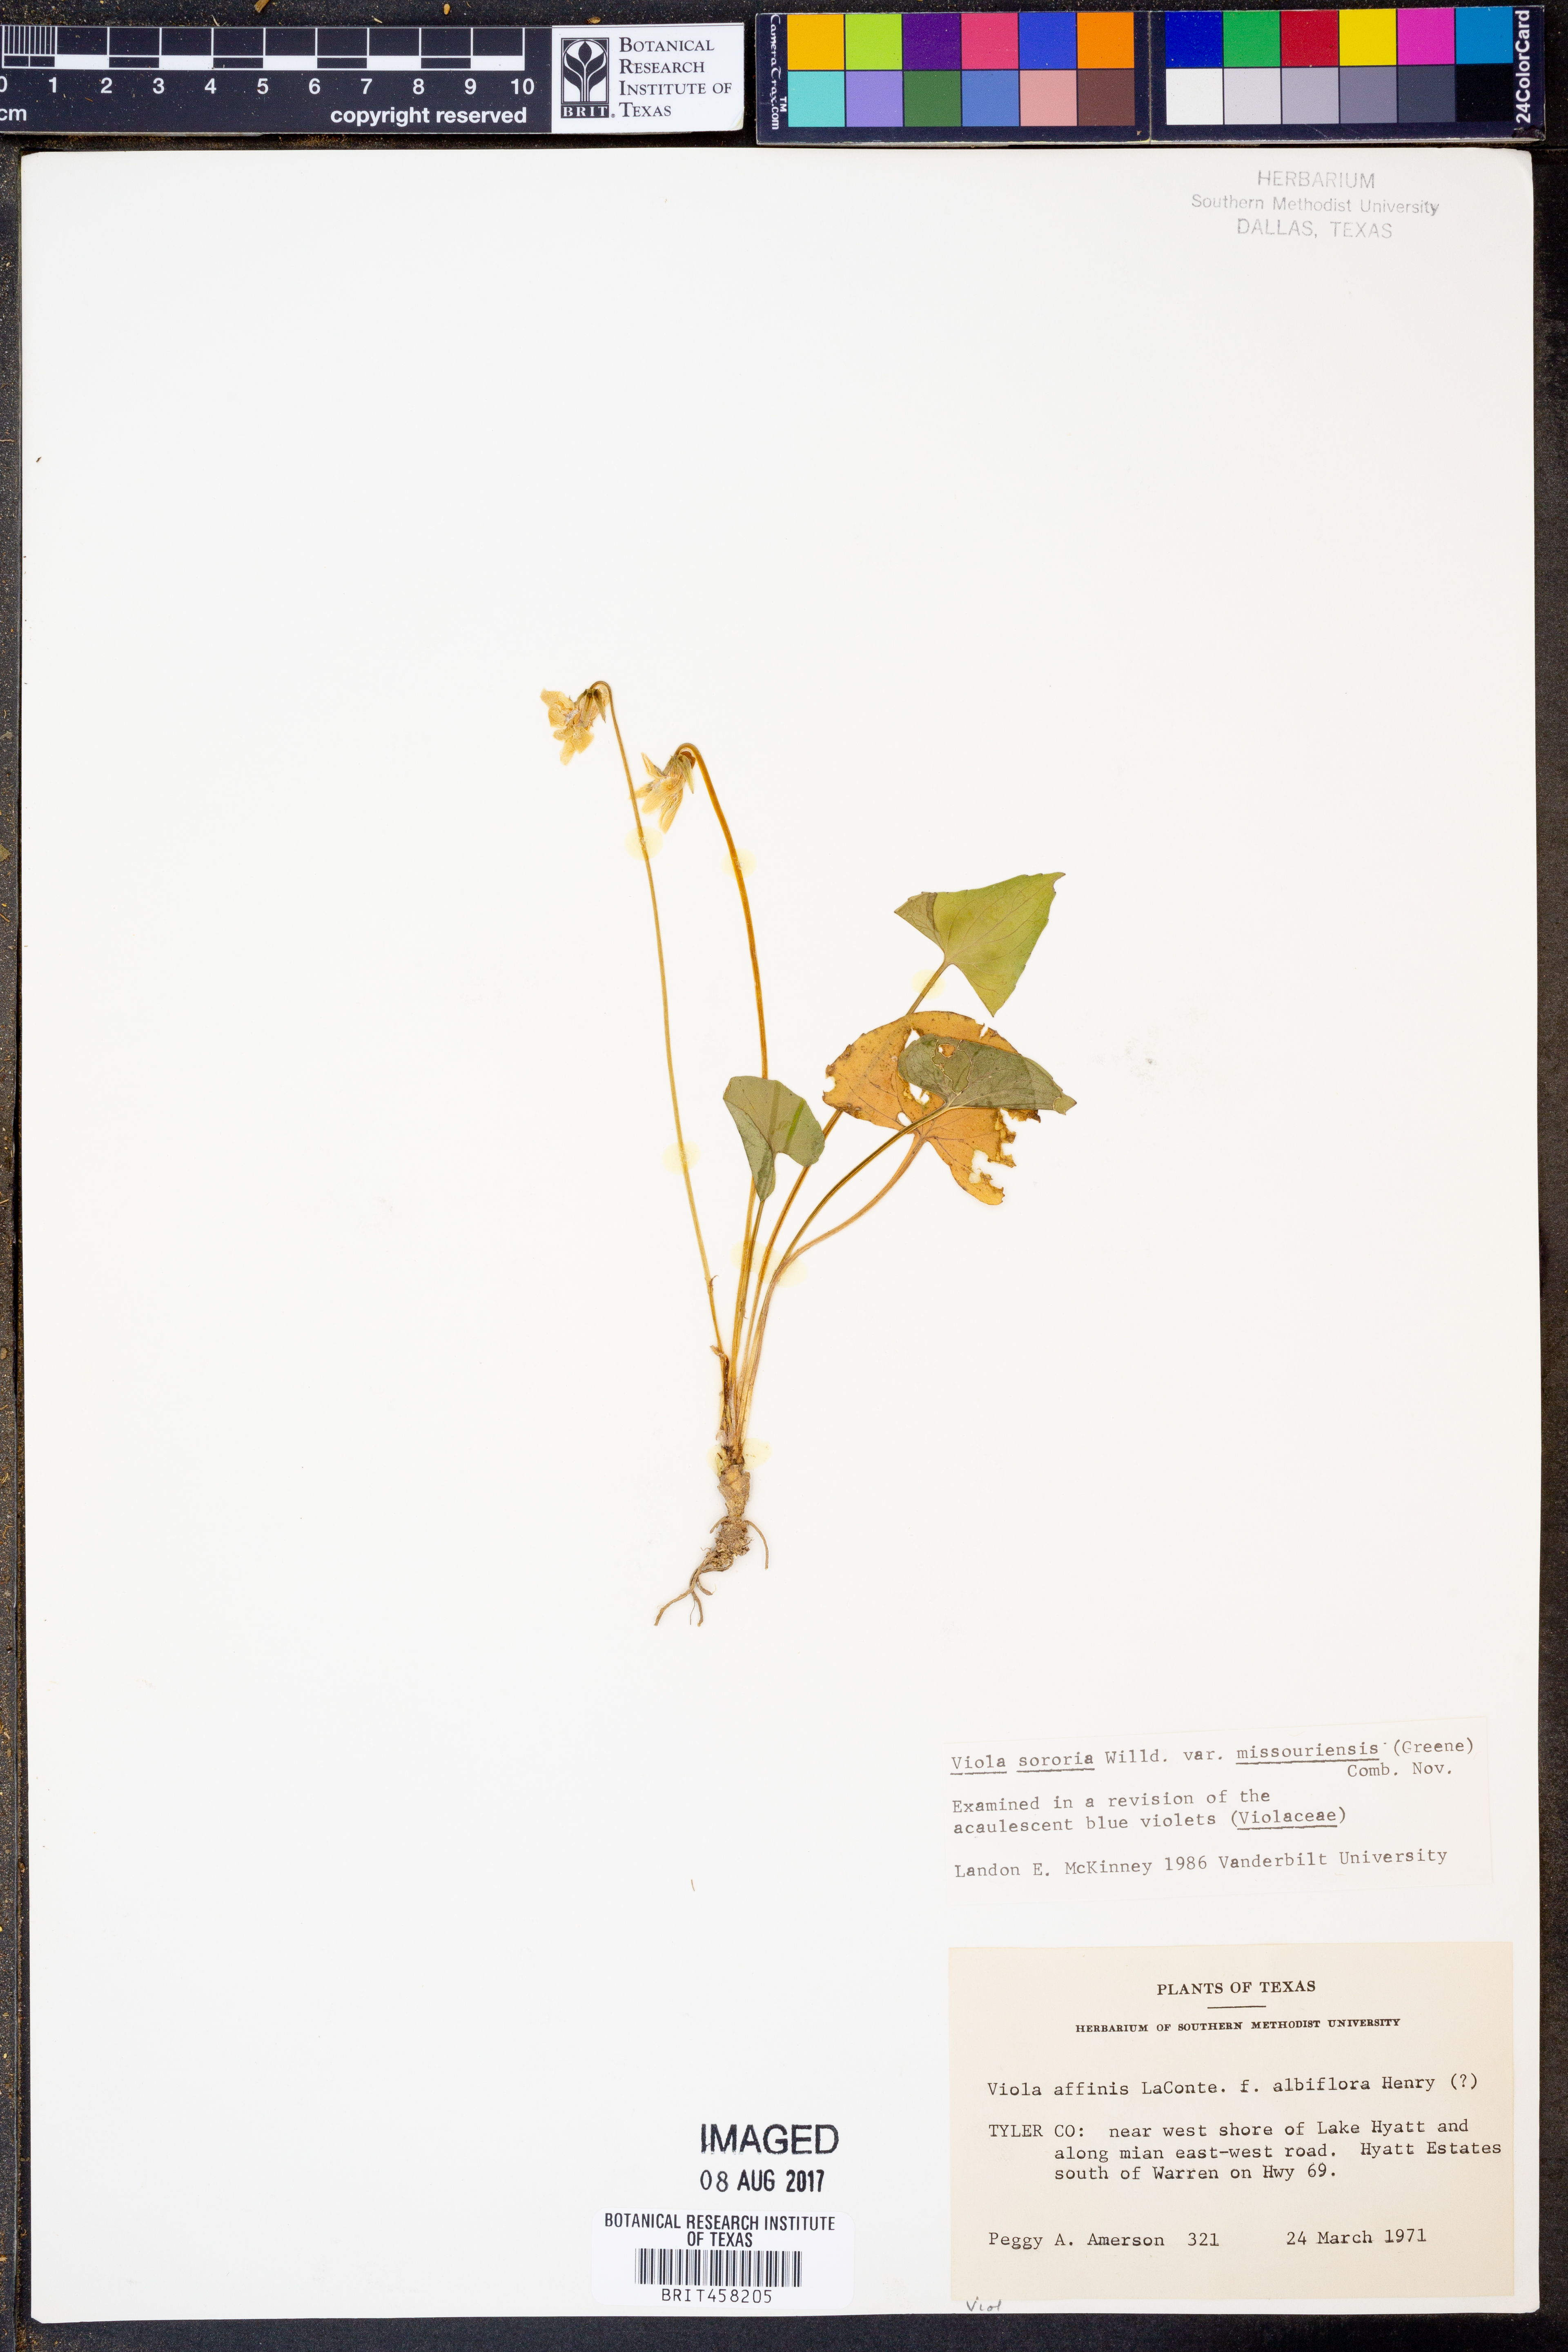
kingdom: Plantae
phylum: Tracheophyta
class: Magnoliopsida
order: Malpighiales
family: Violaceae
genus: Viola
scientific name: Viola missouriensis
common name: Missouri violet
